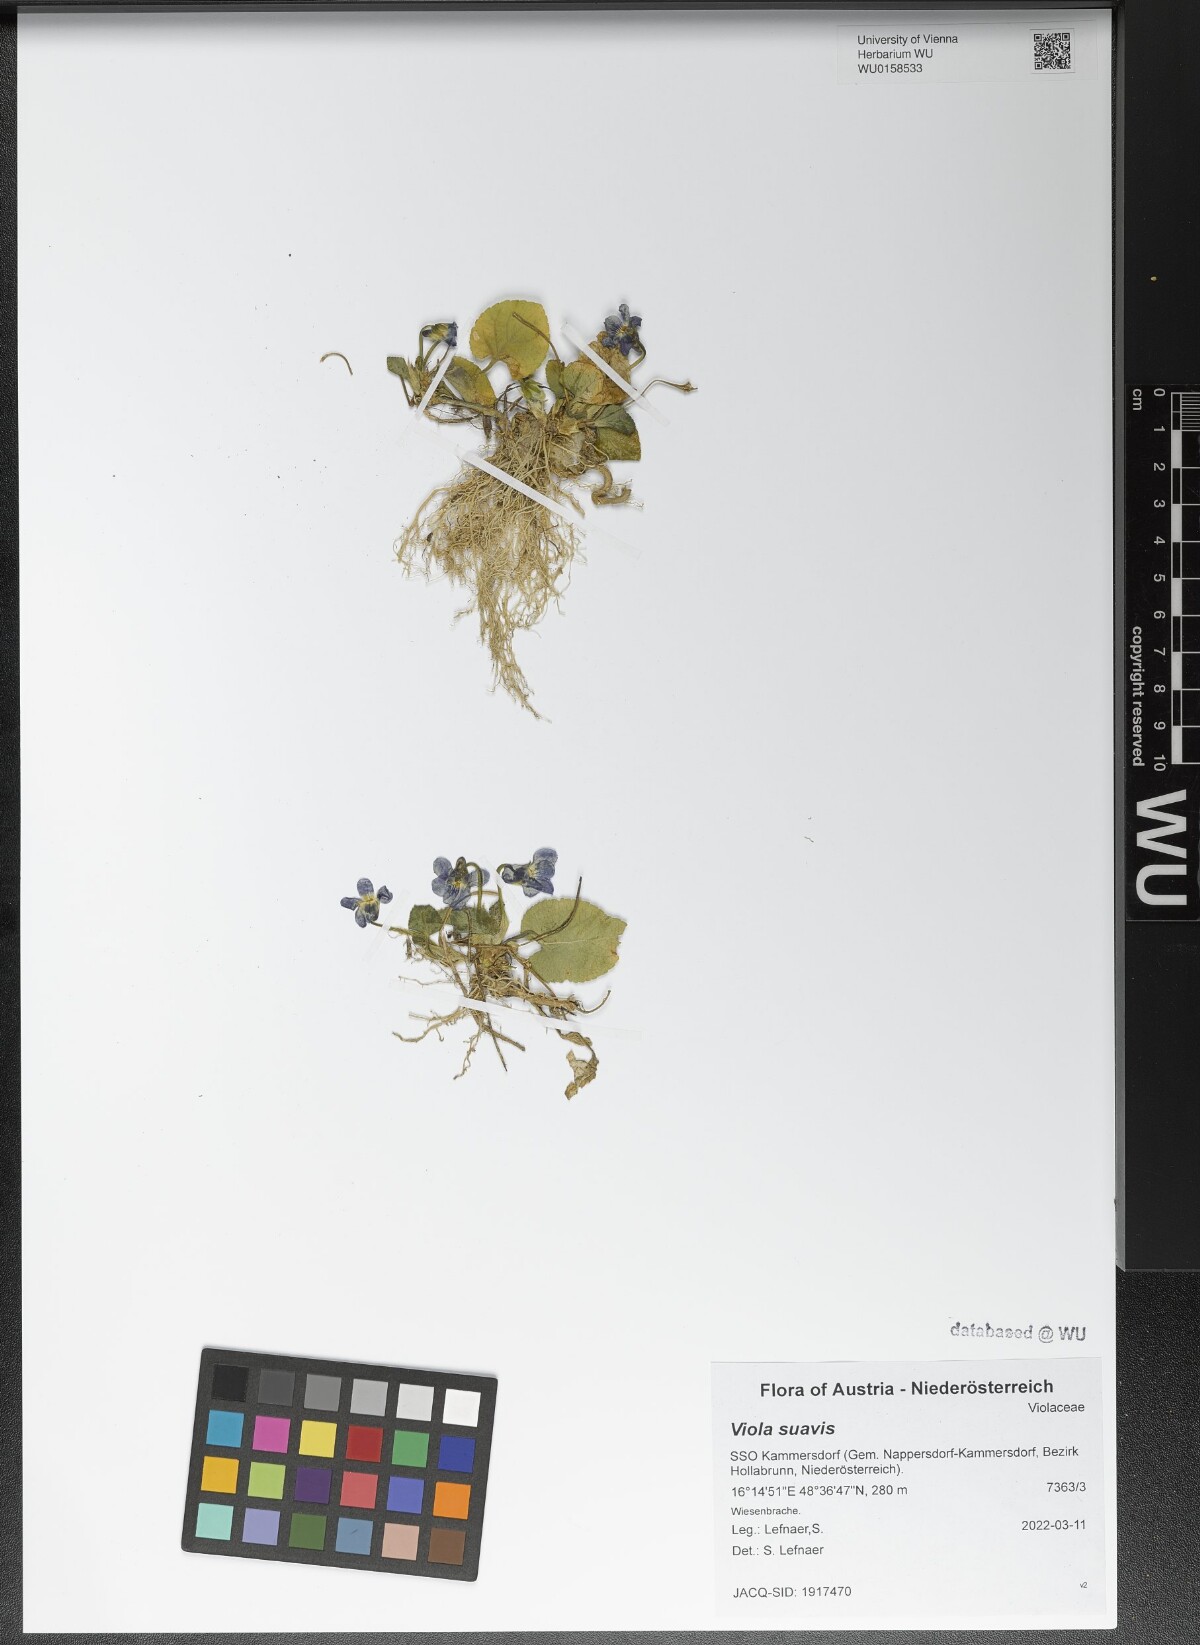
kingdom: Plantae
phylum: Tracheophyta
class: Magnoliopsida
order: Malpighiales
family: Violaceae
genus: Viola
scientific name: Viola suavis
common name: Russian violet
